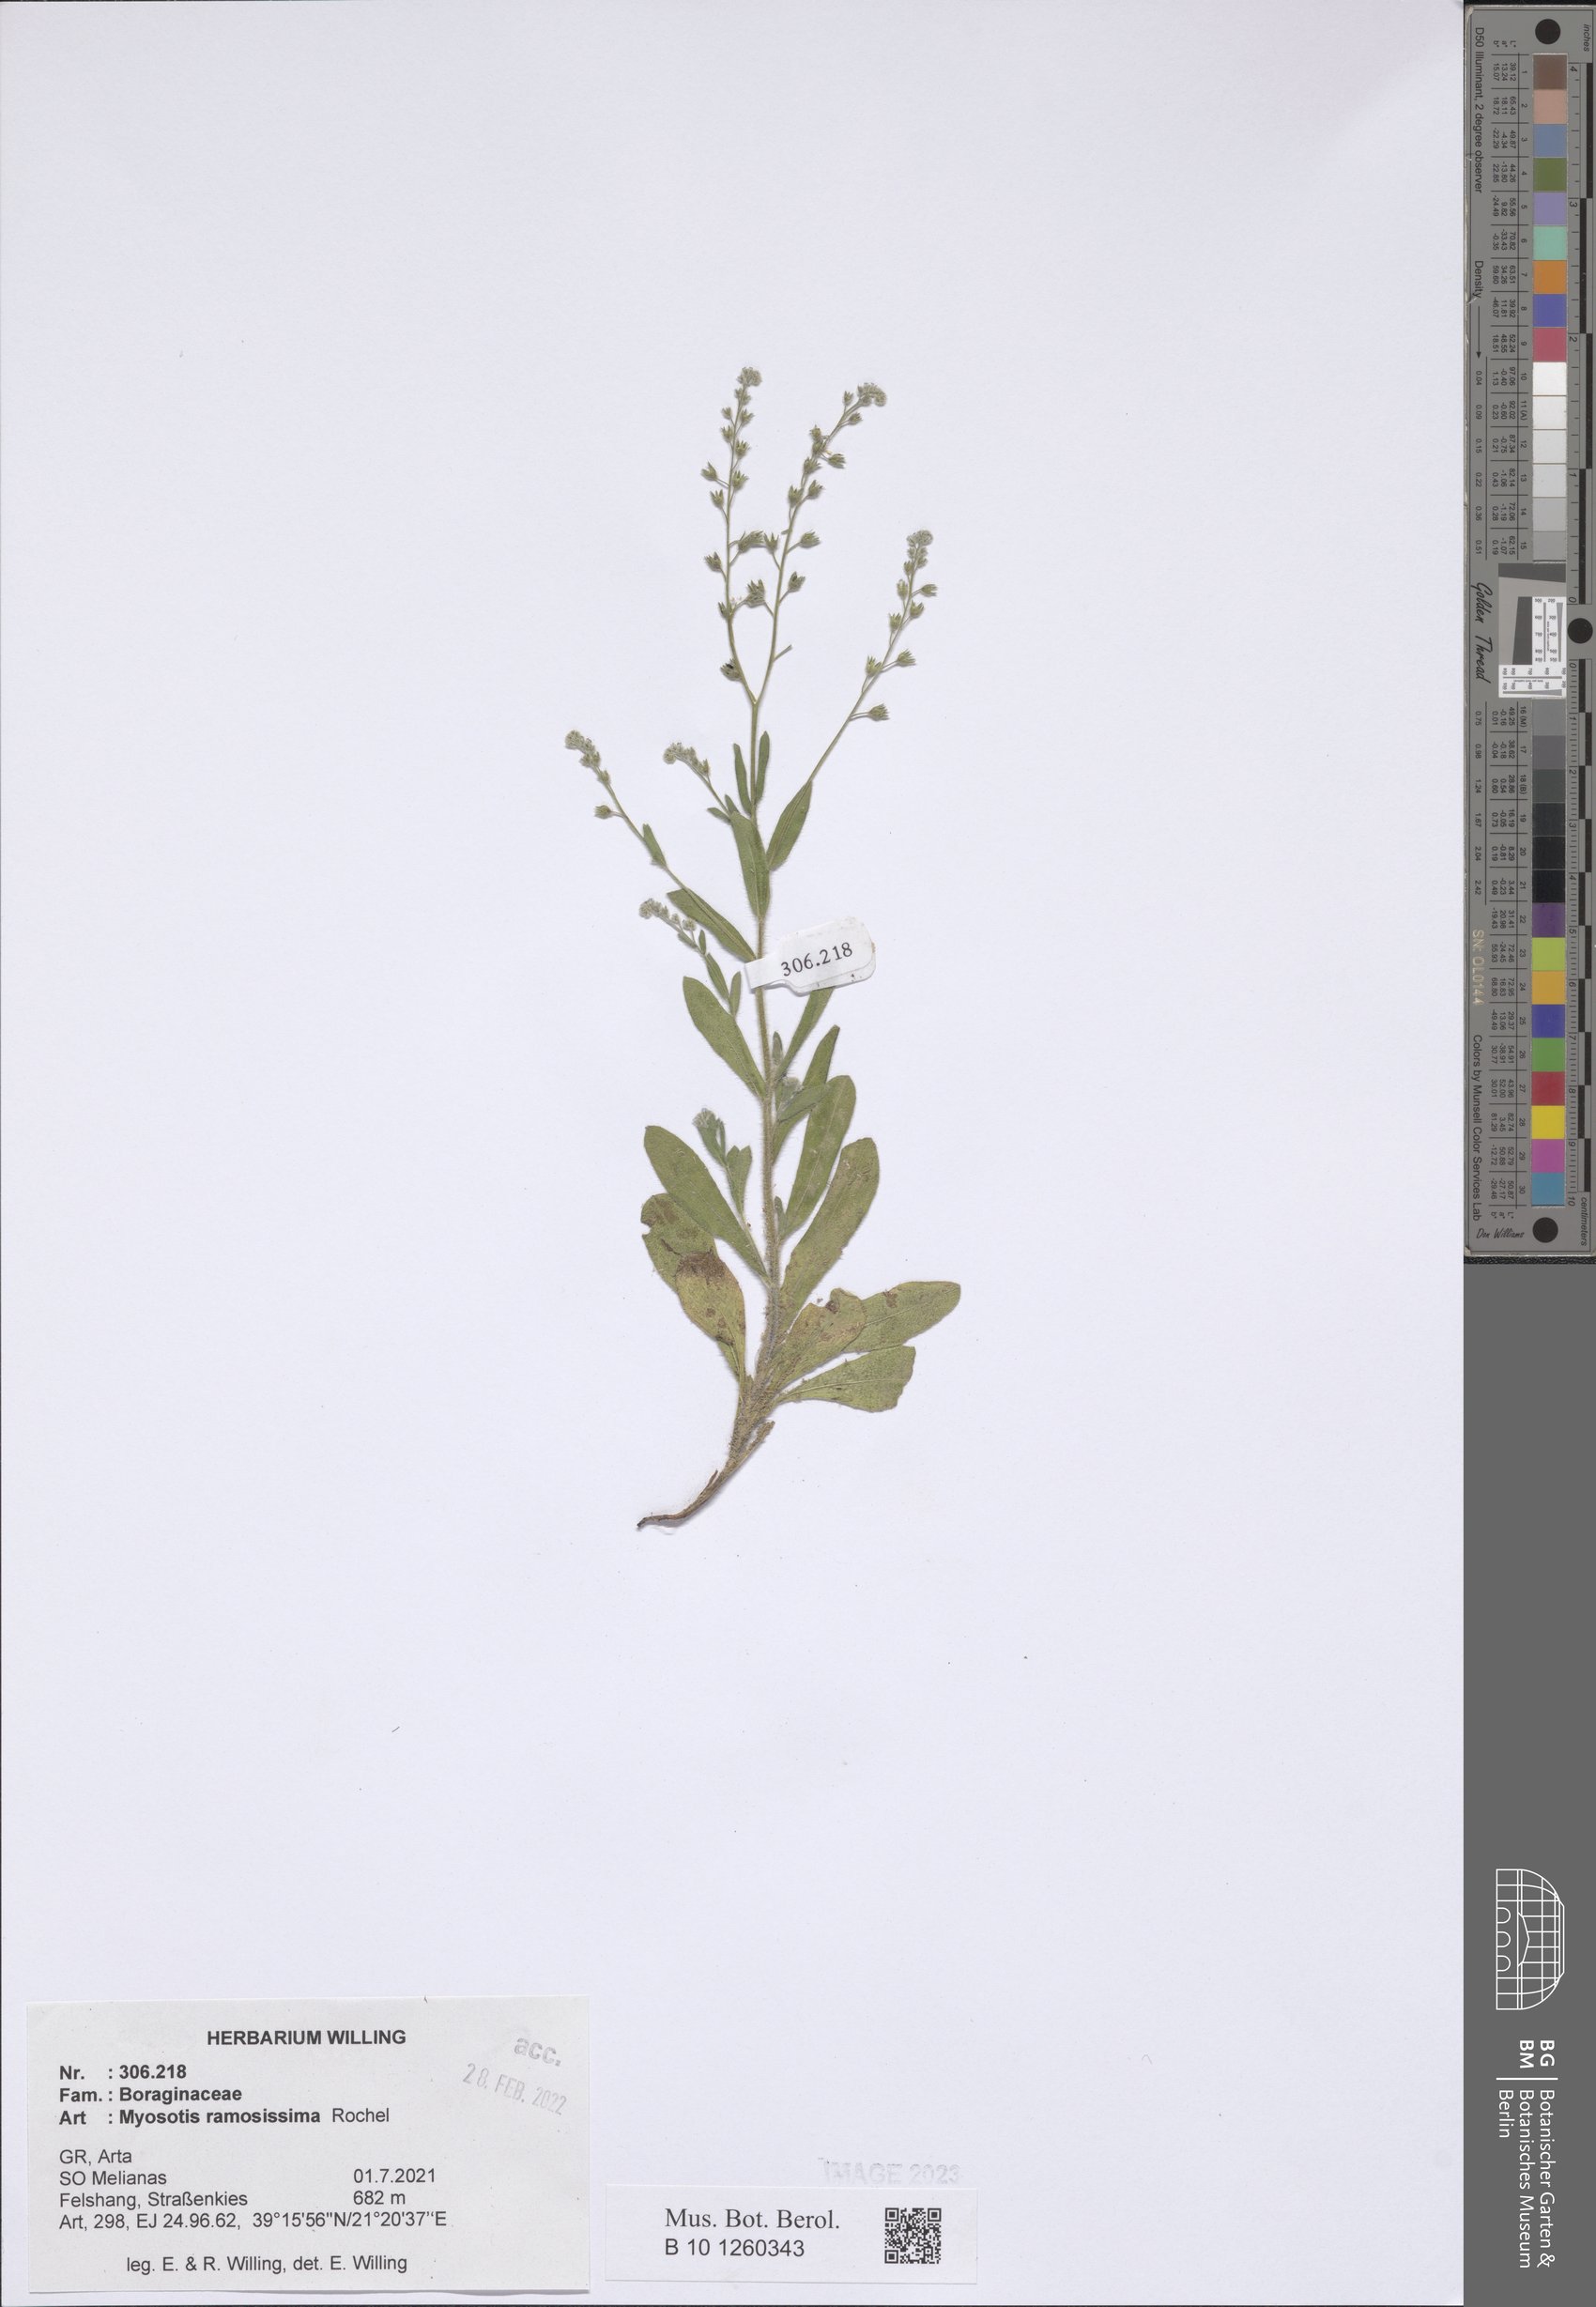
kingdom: Plantae
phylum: Tracheophyta
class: Magnoliopsida
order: Boraginales
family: Boraginaceae
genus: Myosotis
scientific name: Myosotis ramosissima
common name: Early forget-me-not
